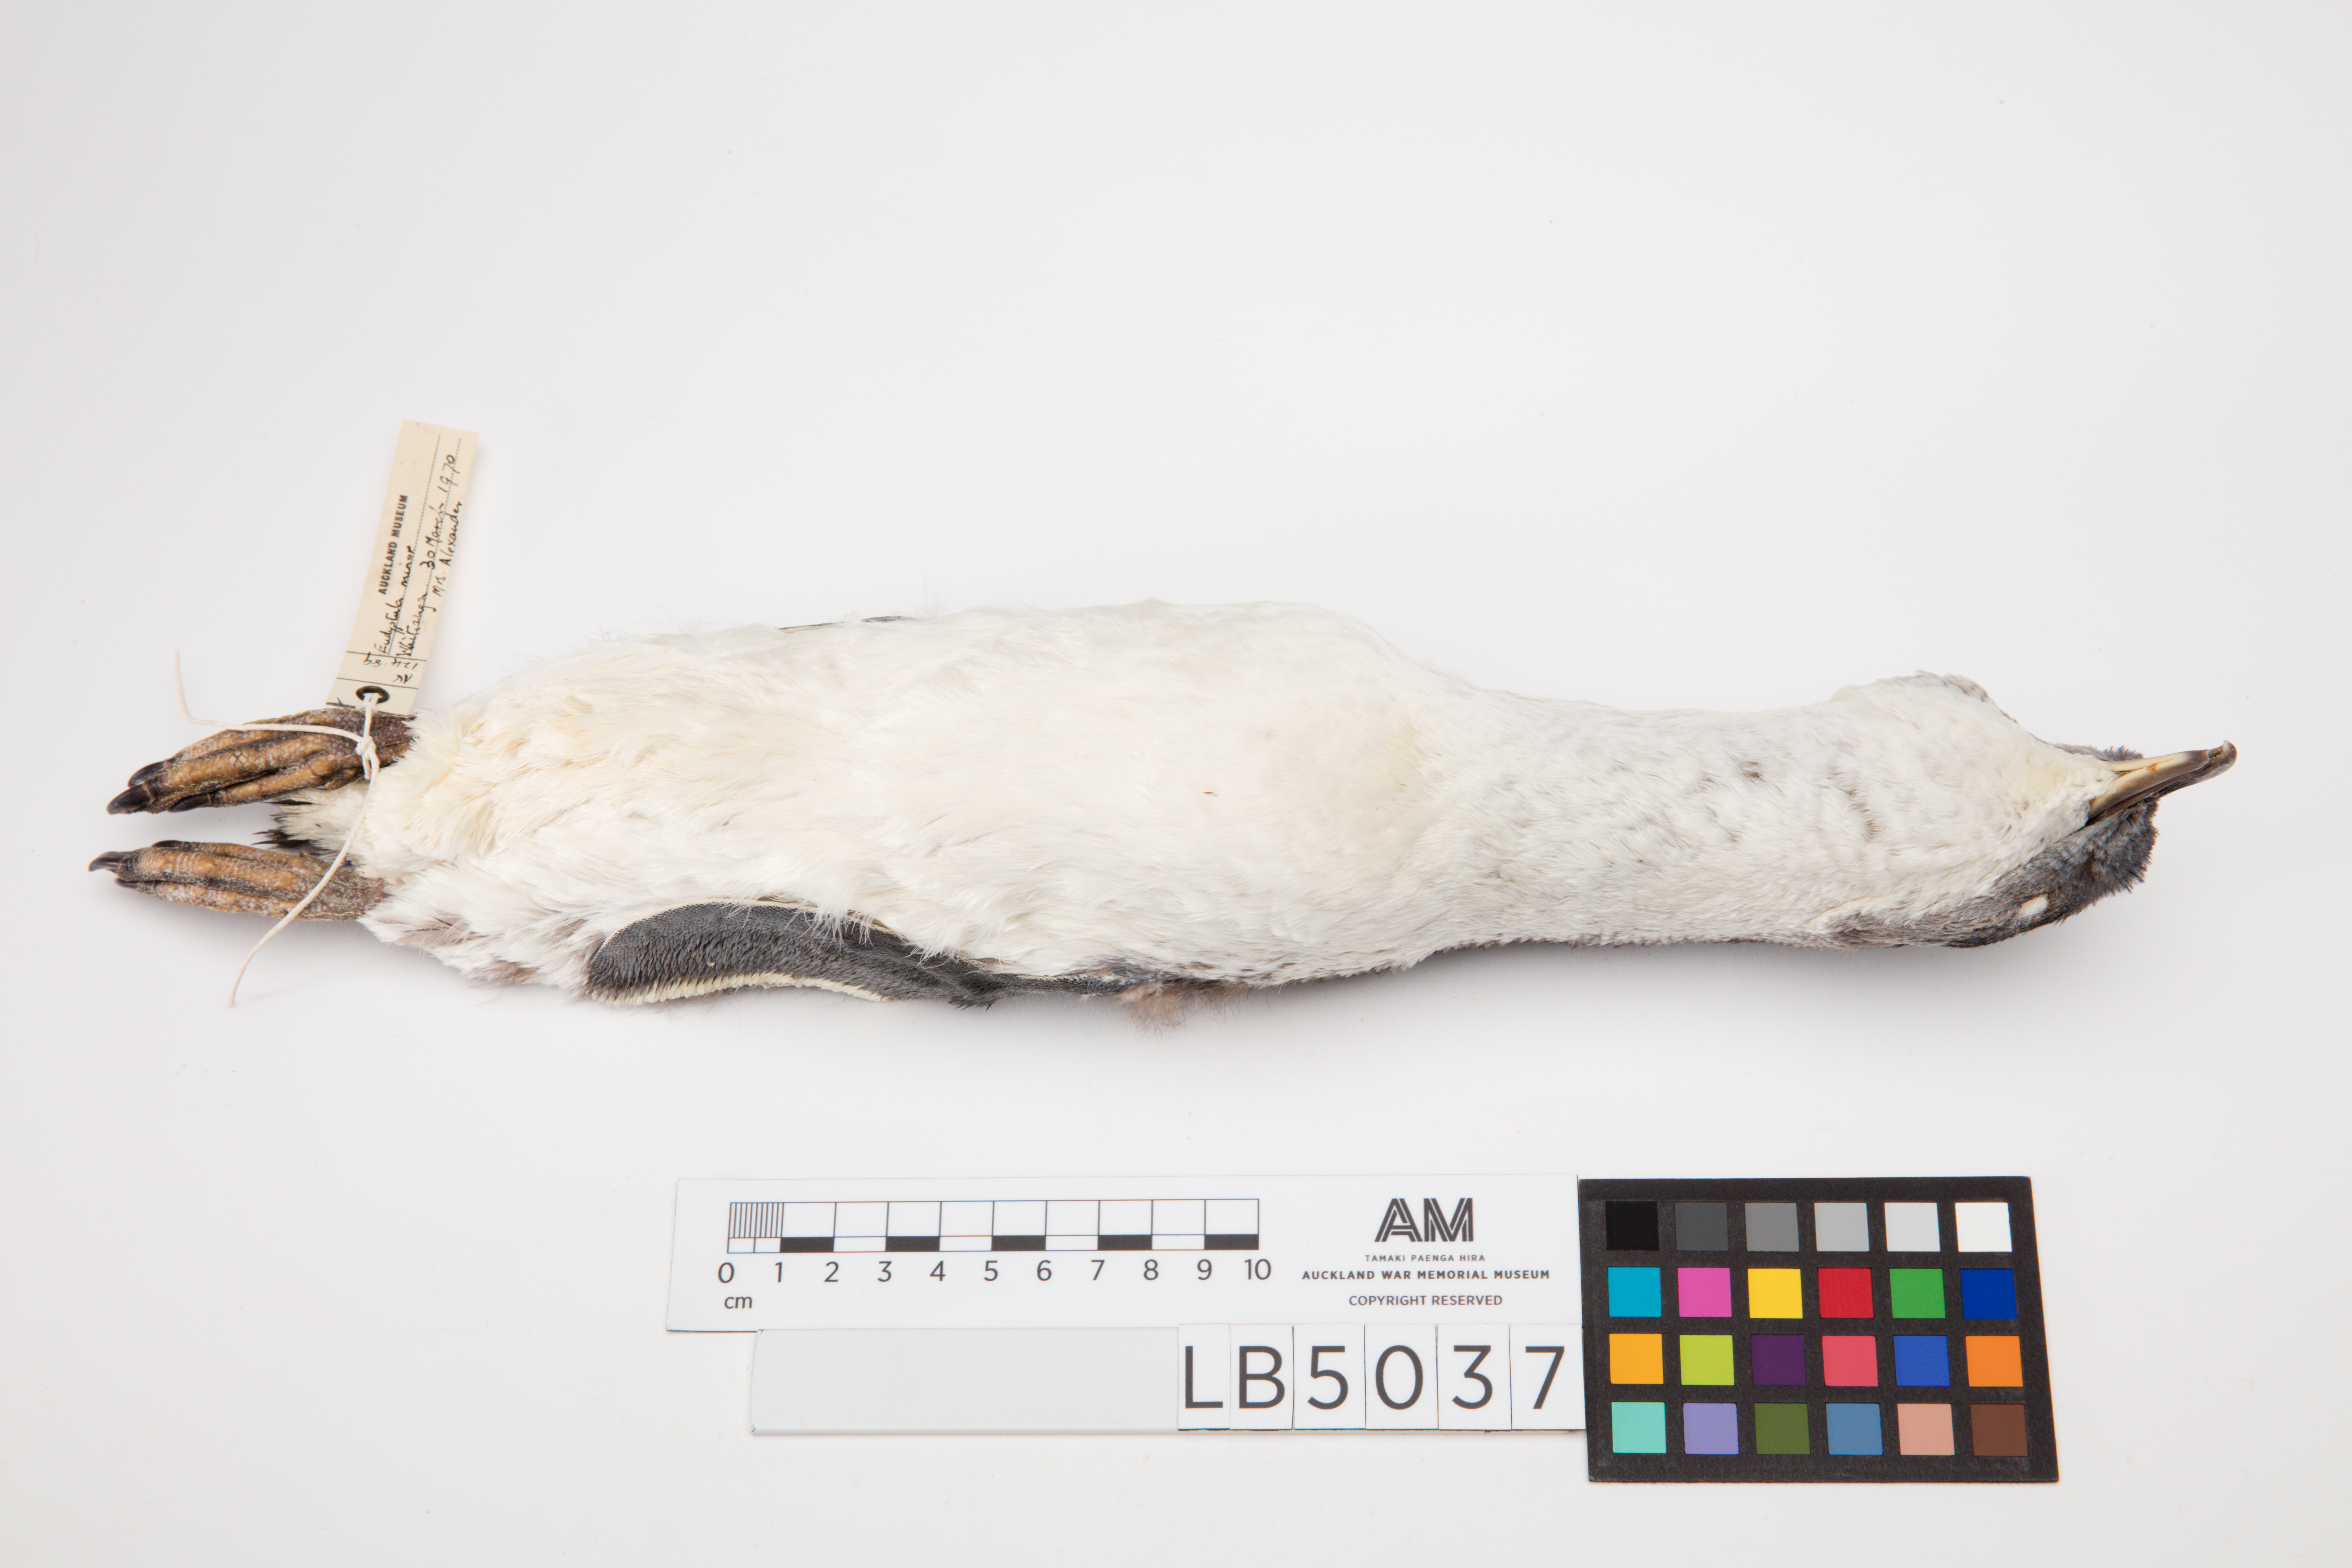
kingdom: Animalia
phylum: Chordata
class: Aves
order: Sphenisciformes
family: Spheniscidae
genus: Eudyptula
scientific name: Eudyptula minor
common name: Little penguin
